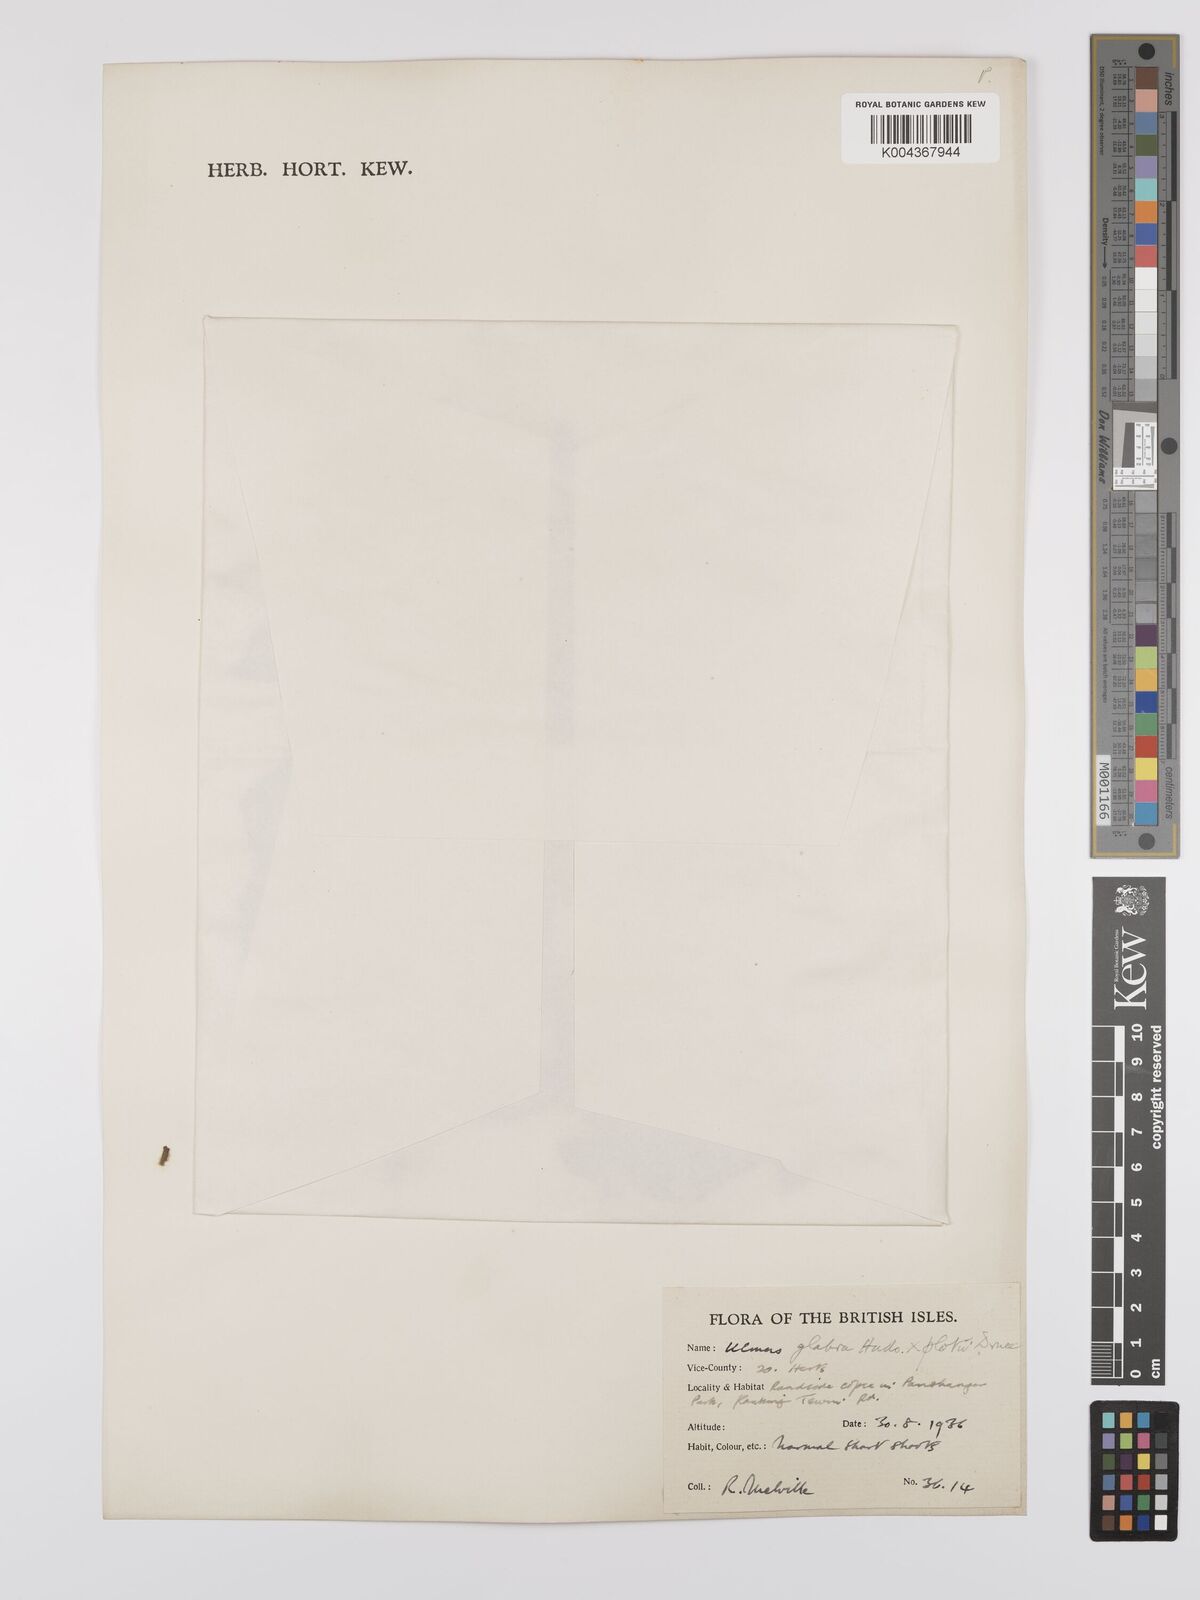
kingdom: Plantae
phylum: Tracheophyta
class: Magnoliopsida
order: Rosales
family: Ulmaceae
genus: Ulmus
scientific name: Ulmus glabra
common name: Wych elm
